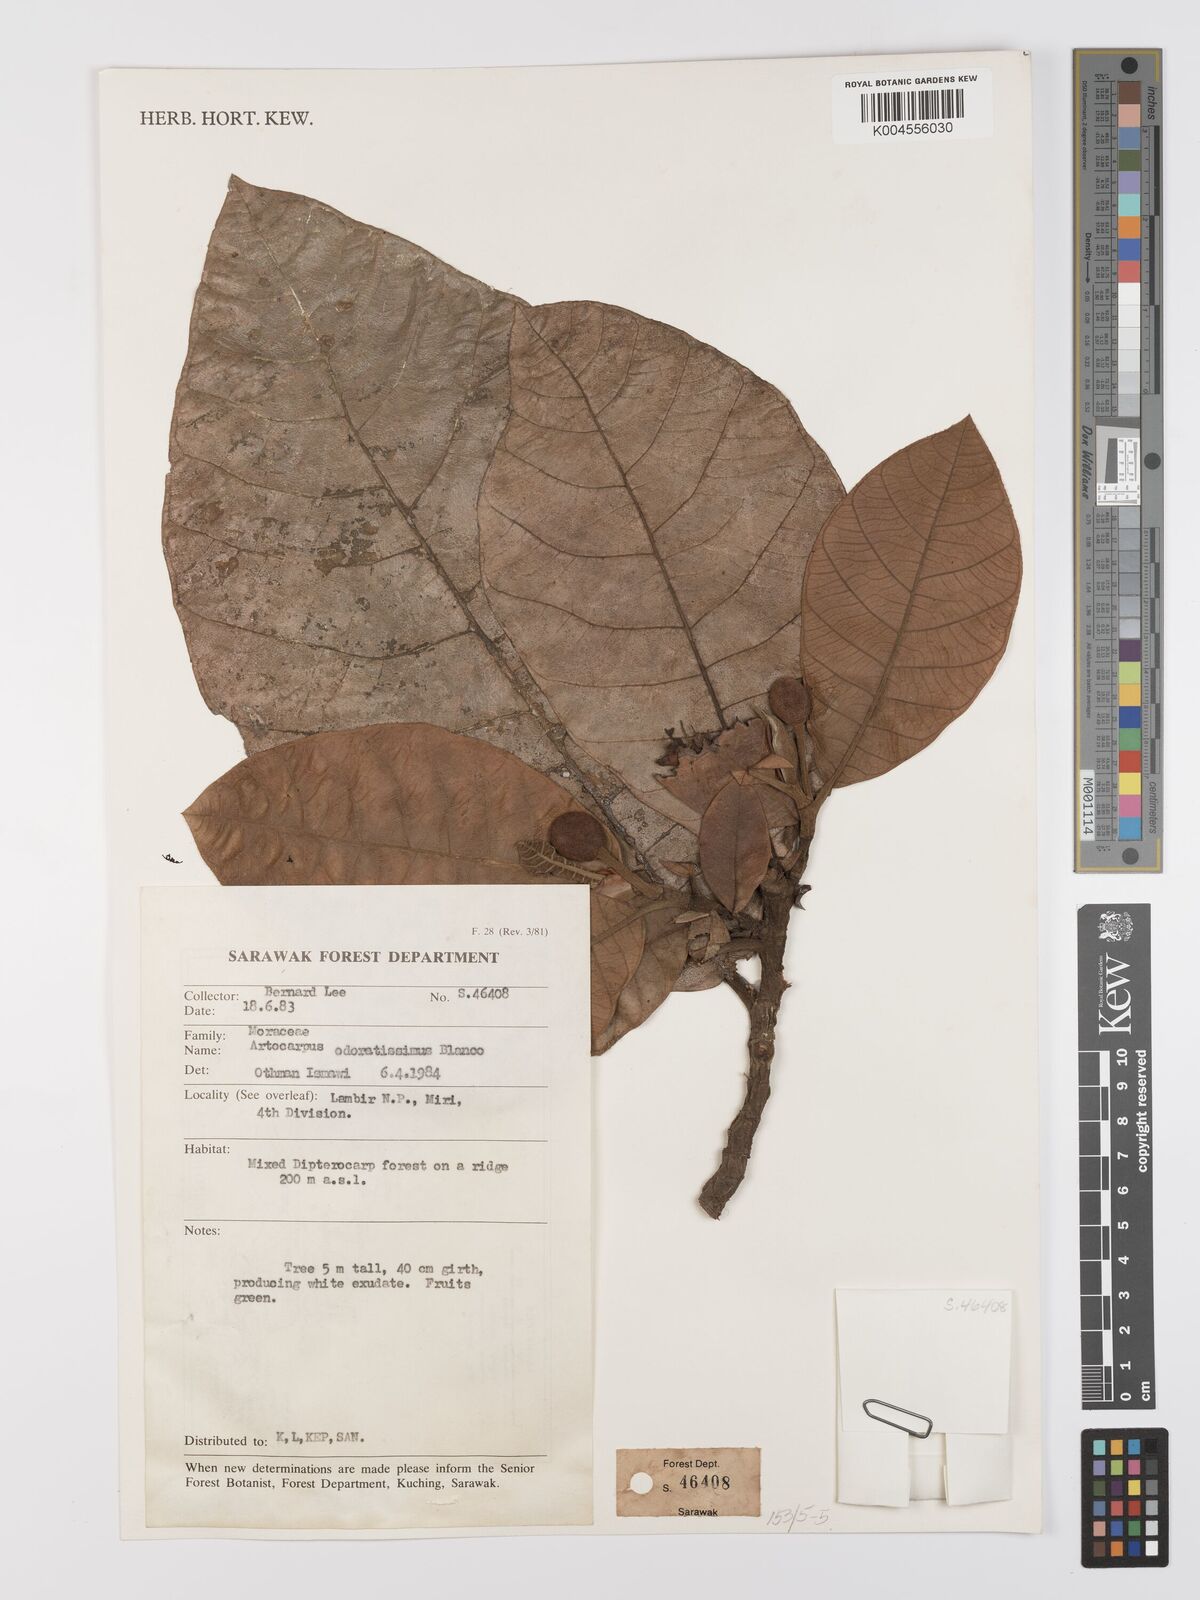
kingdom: Plantae
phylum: Tracheophyta
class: Magnoliopsida
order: Rosales
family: Moraceae
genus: Artocarpus
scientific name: Artocarpus odoratissimus
